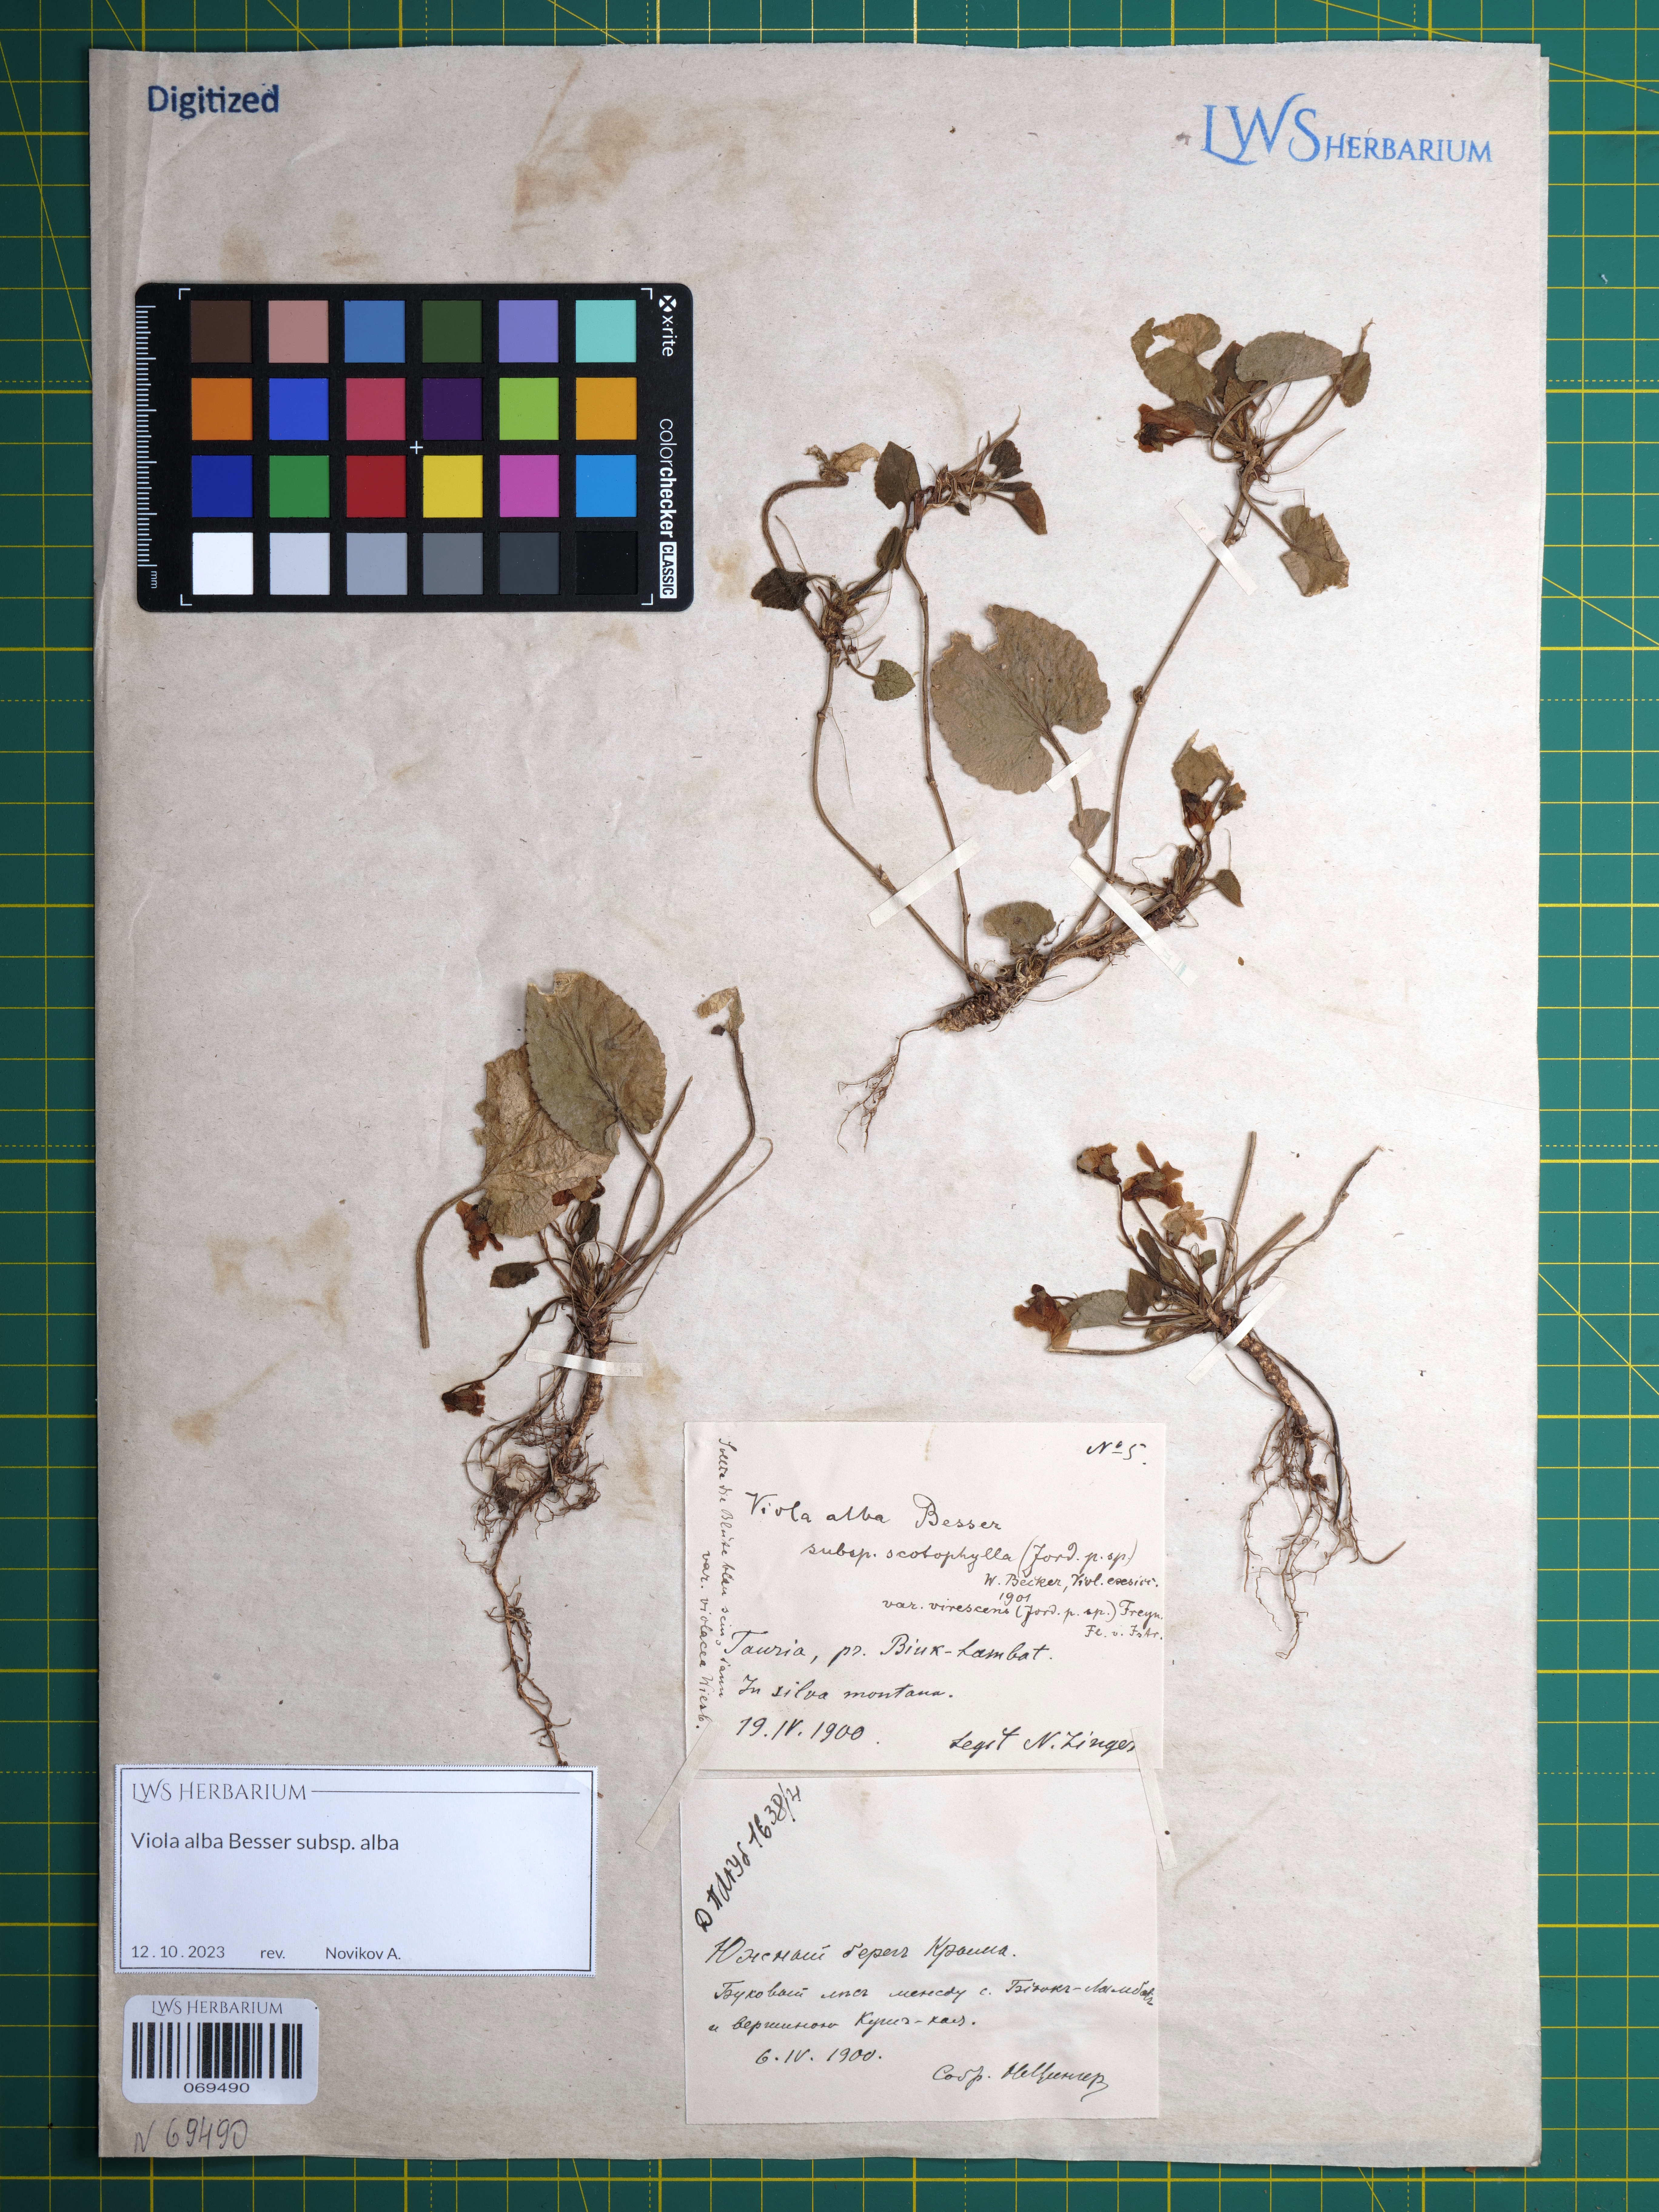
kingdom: Plantae
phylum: Tracheophyta
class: Magnoliopsida
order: Malpighiales
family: Violaceae
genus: Viola
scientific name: Viola alba
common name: White violet
